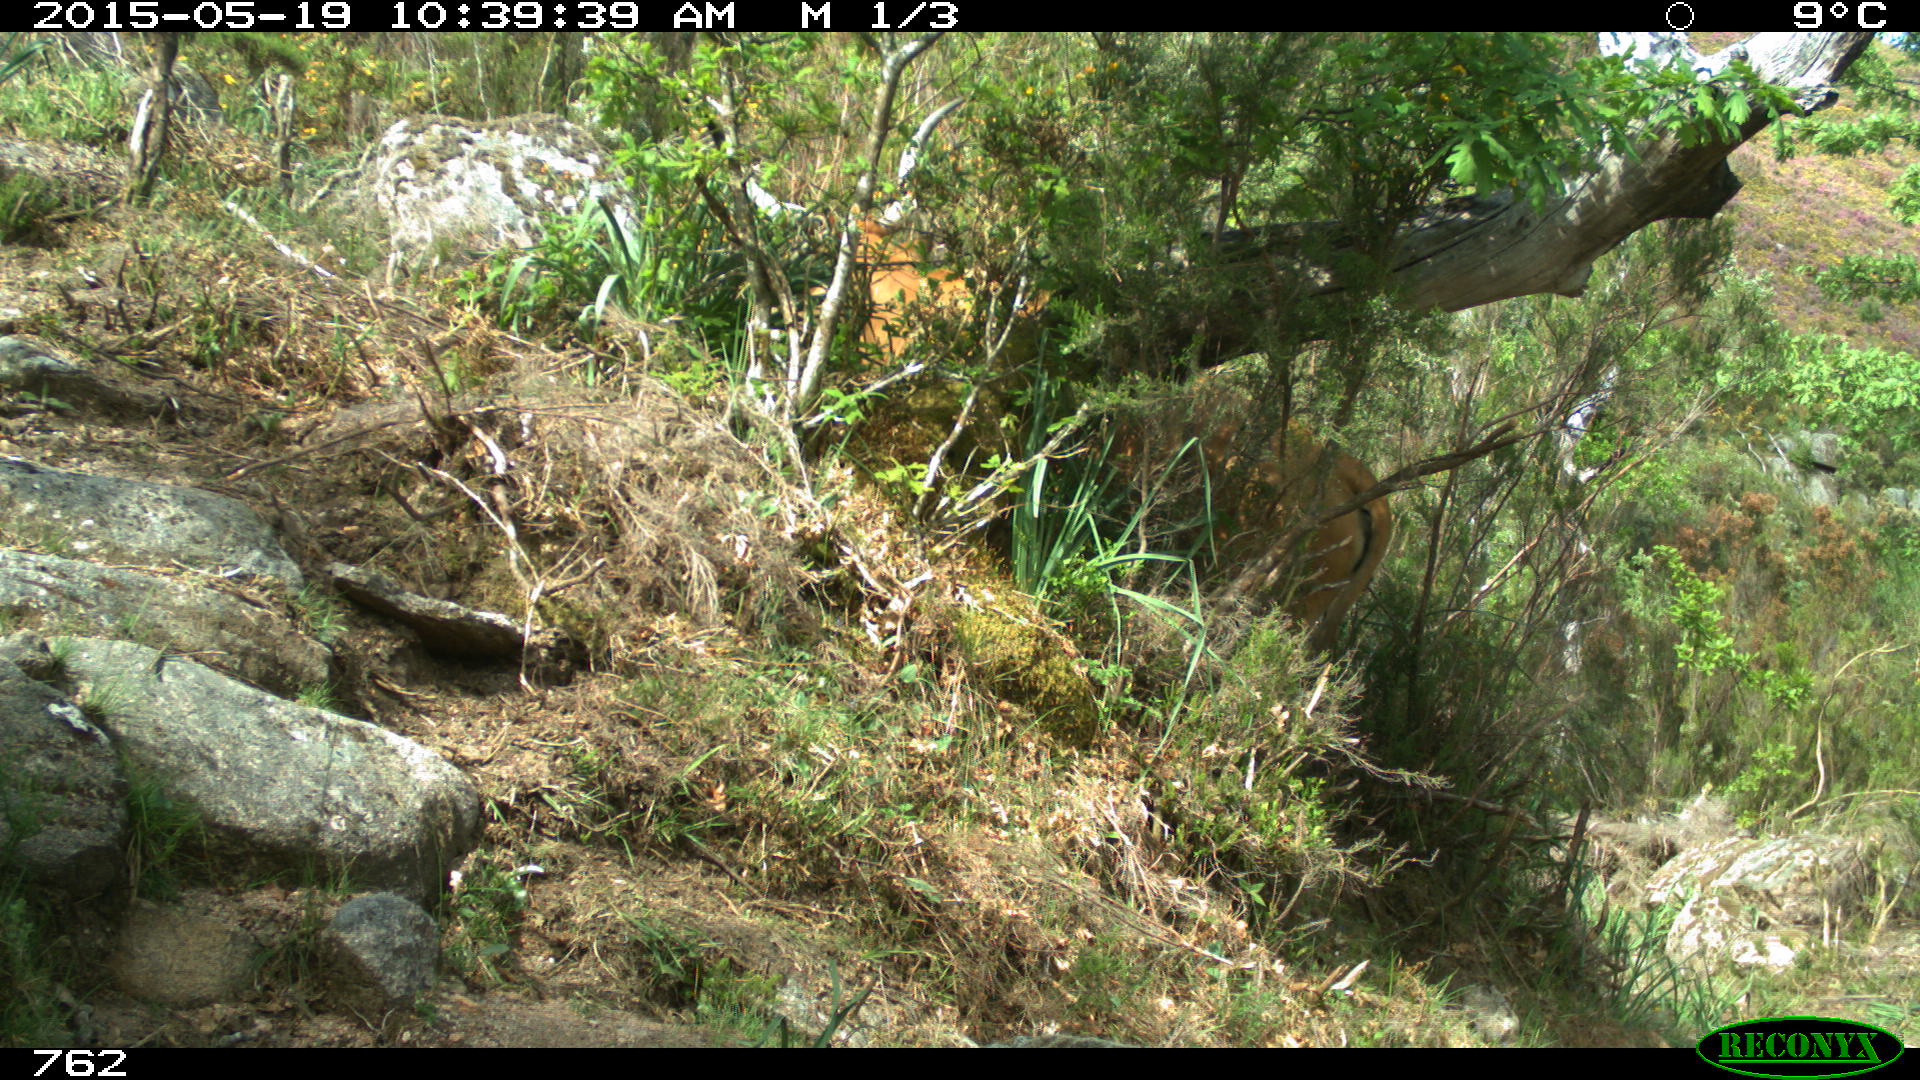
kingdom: Animalia
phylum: Chordata
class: Mammalia
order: Artiodactyla
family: Bovidae
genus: Bos
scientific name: Bos taurus
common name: Domesticated cattle
